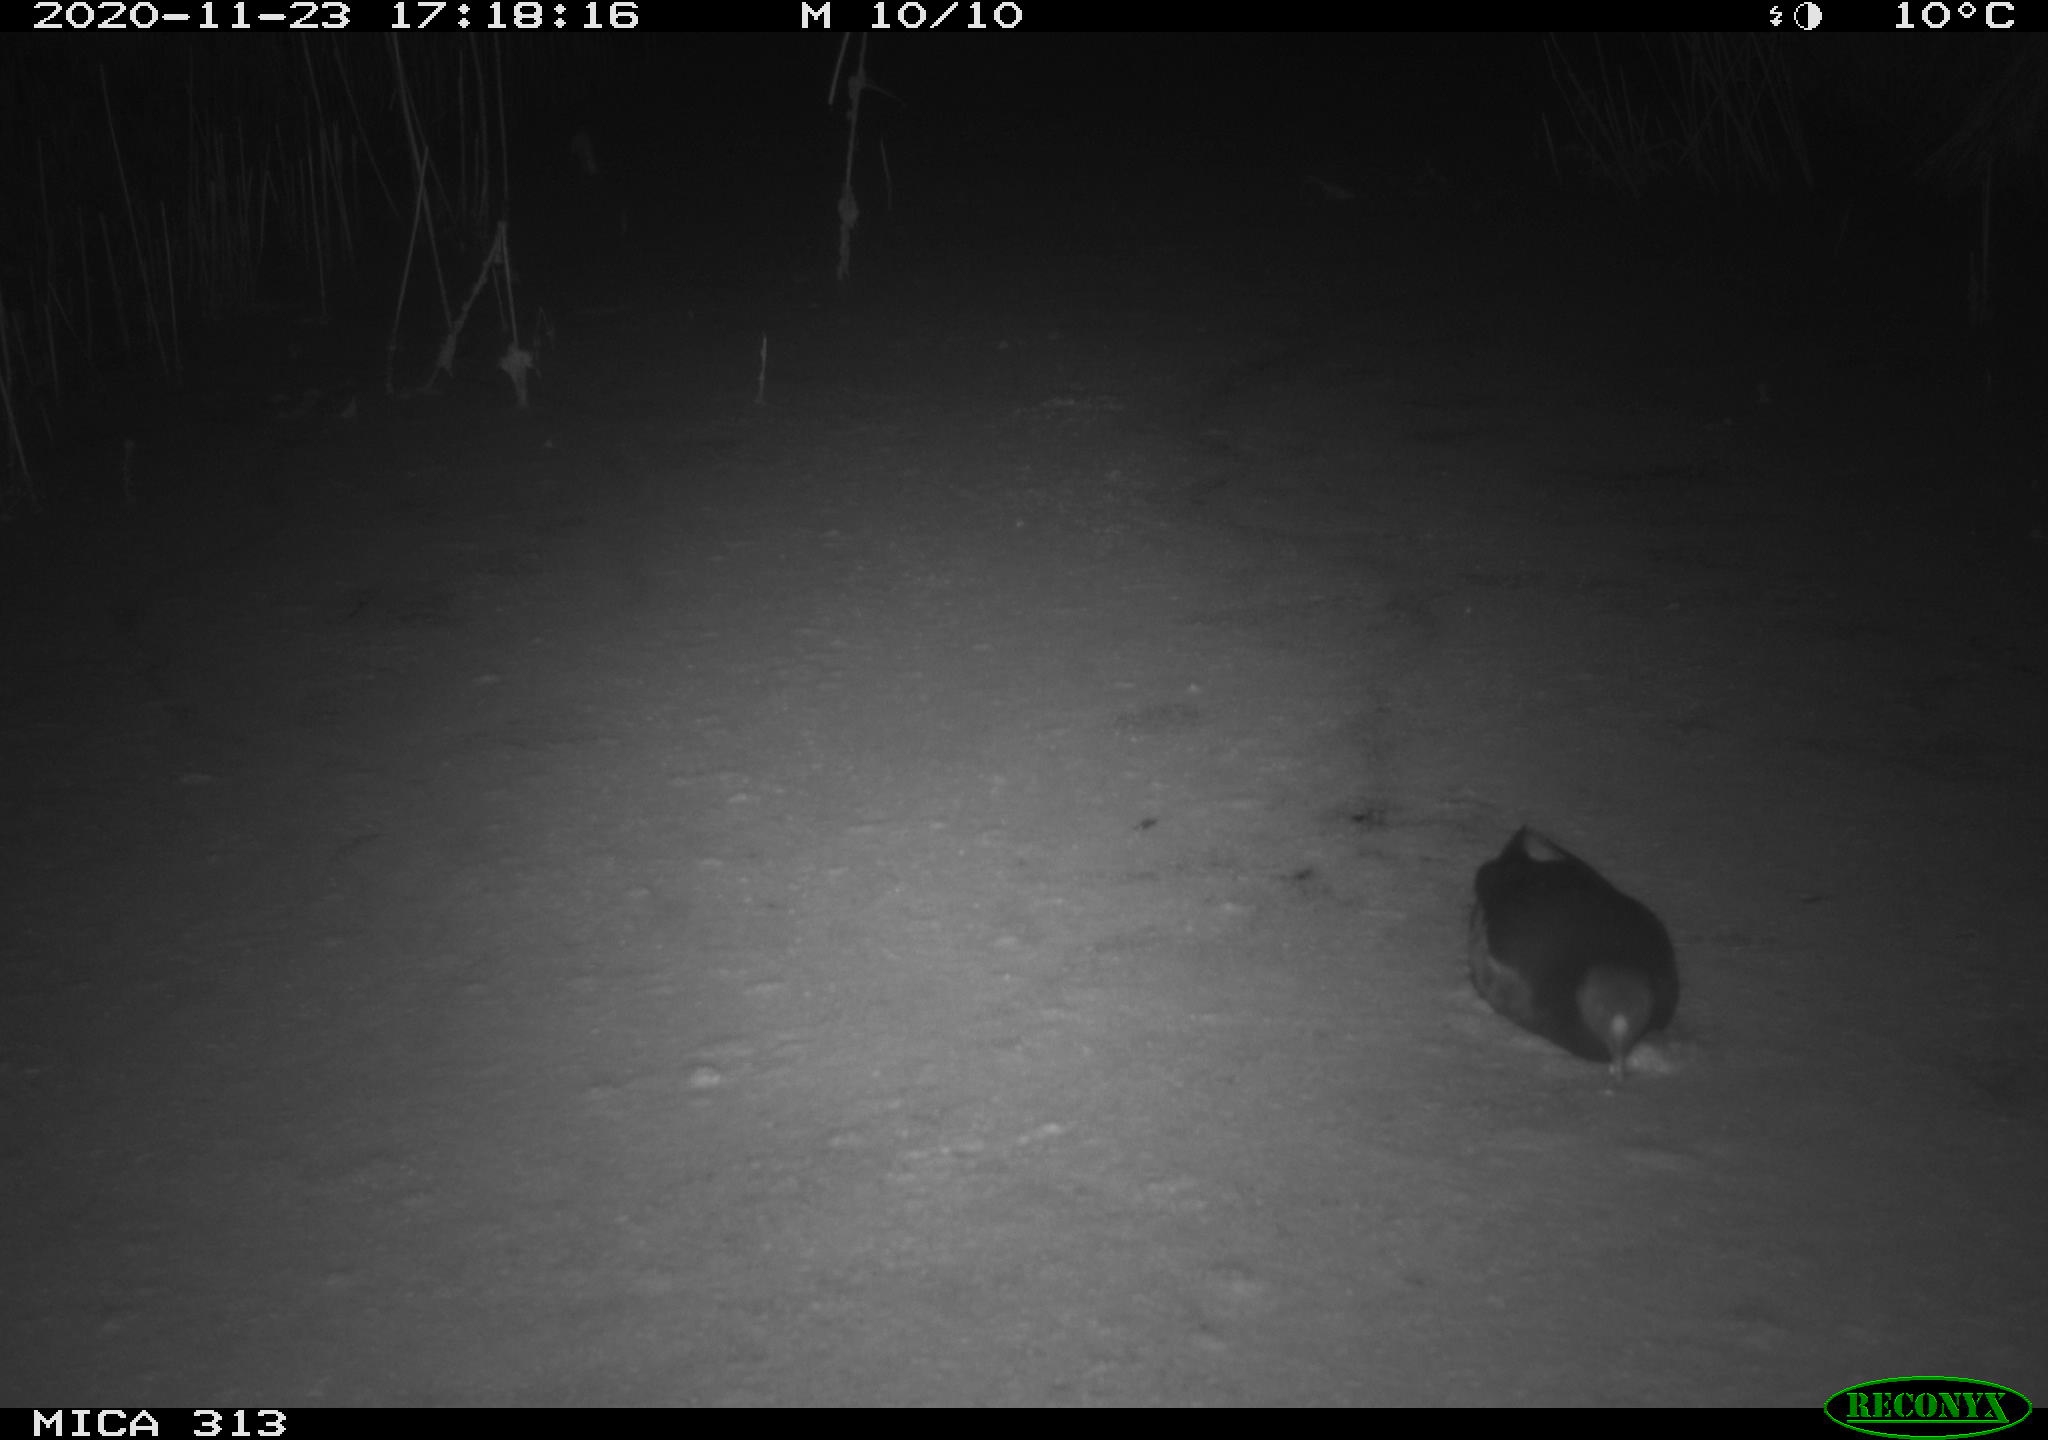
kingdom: Animalia
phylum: Chordata
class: Aves
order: Gruiformes
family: Rallidae
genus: Gallinula
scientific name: Gallinula chloropus
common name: Common moorhen
